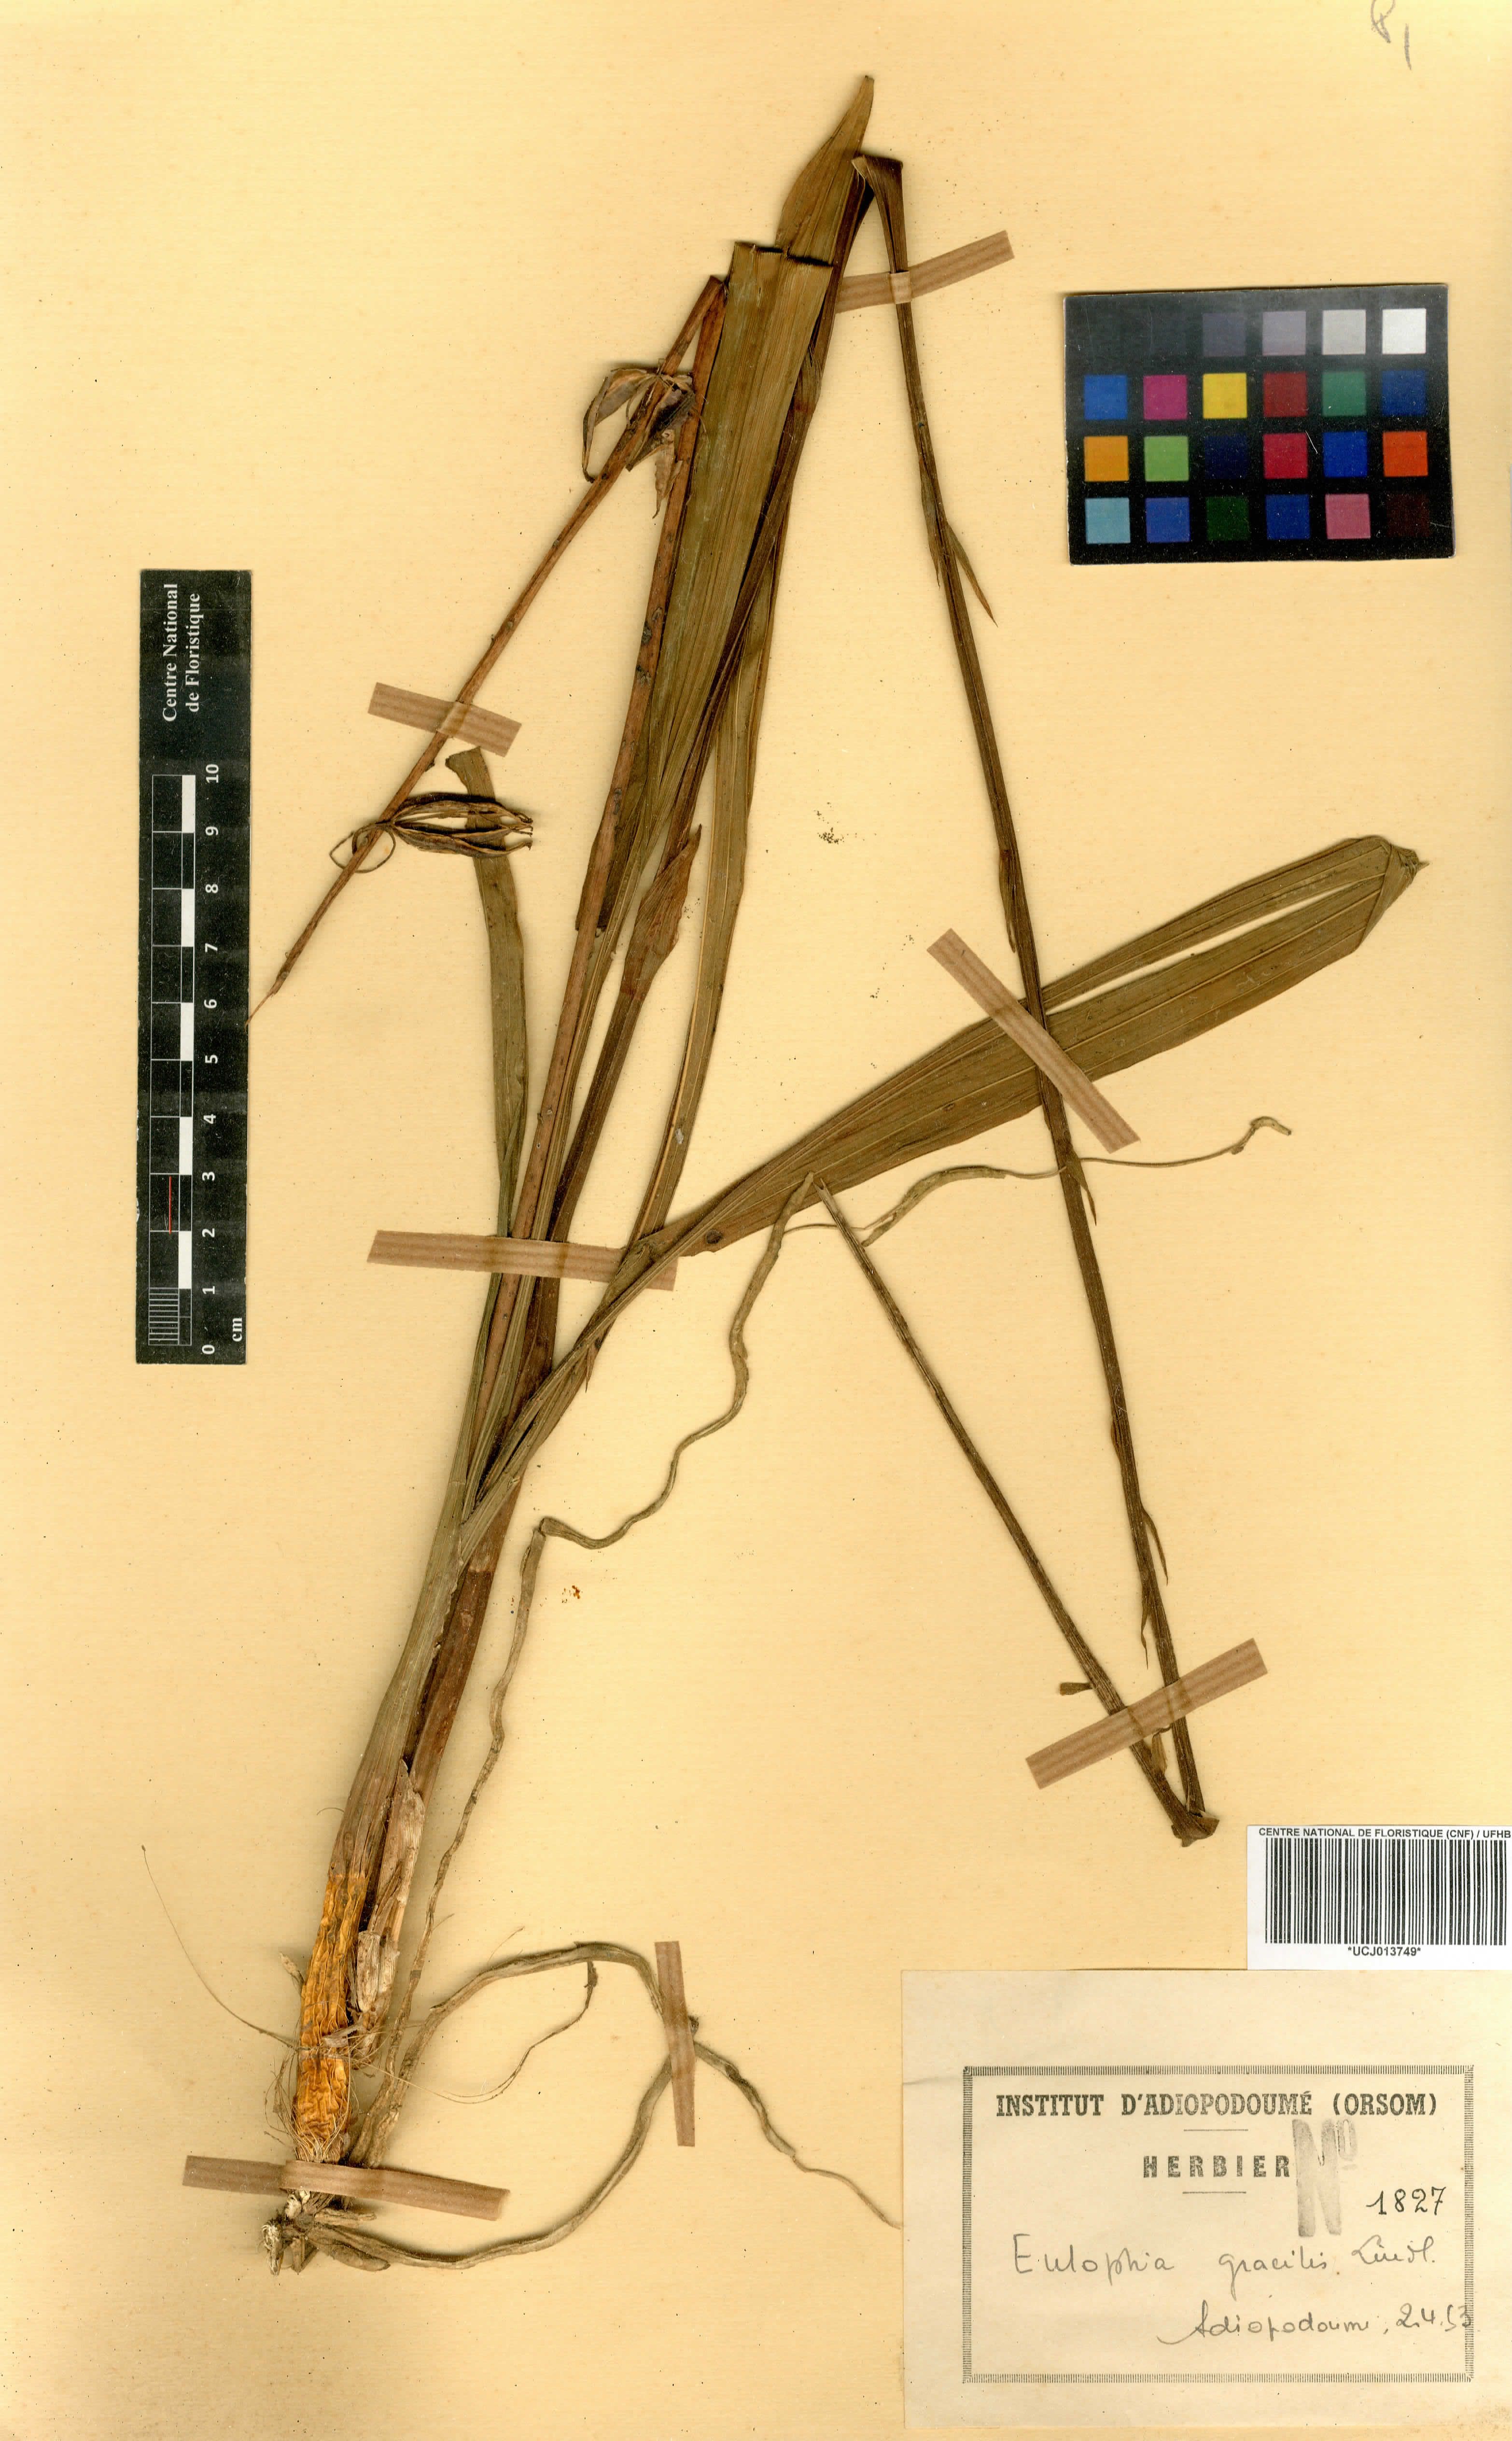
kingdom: Plantae
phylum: Tracheophyta
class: Liliopsida
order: Asparagales
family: Orchidaceae
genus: Eulophia
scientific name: Eulophia gracilis
